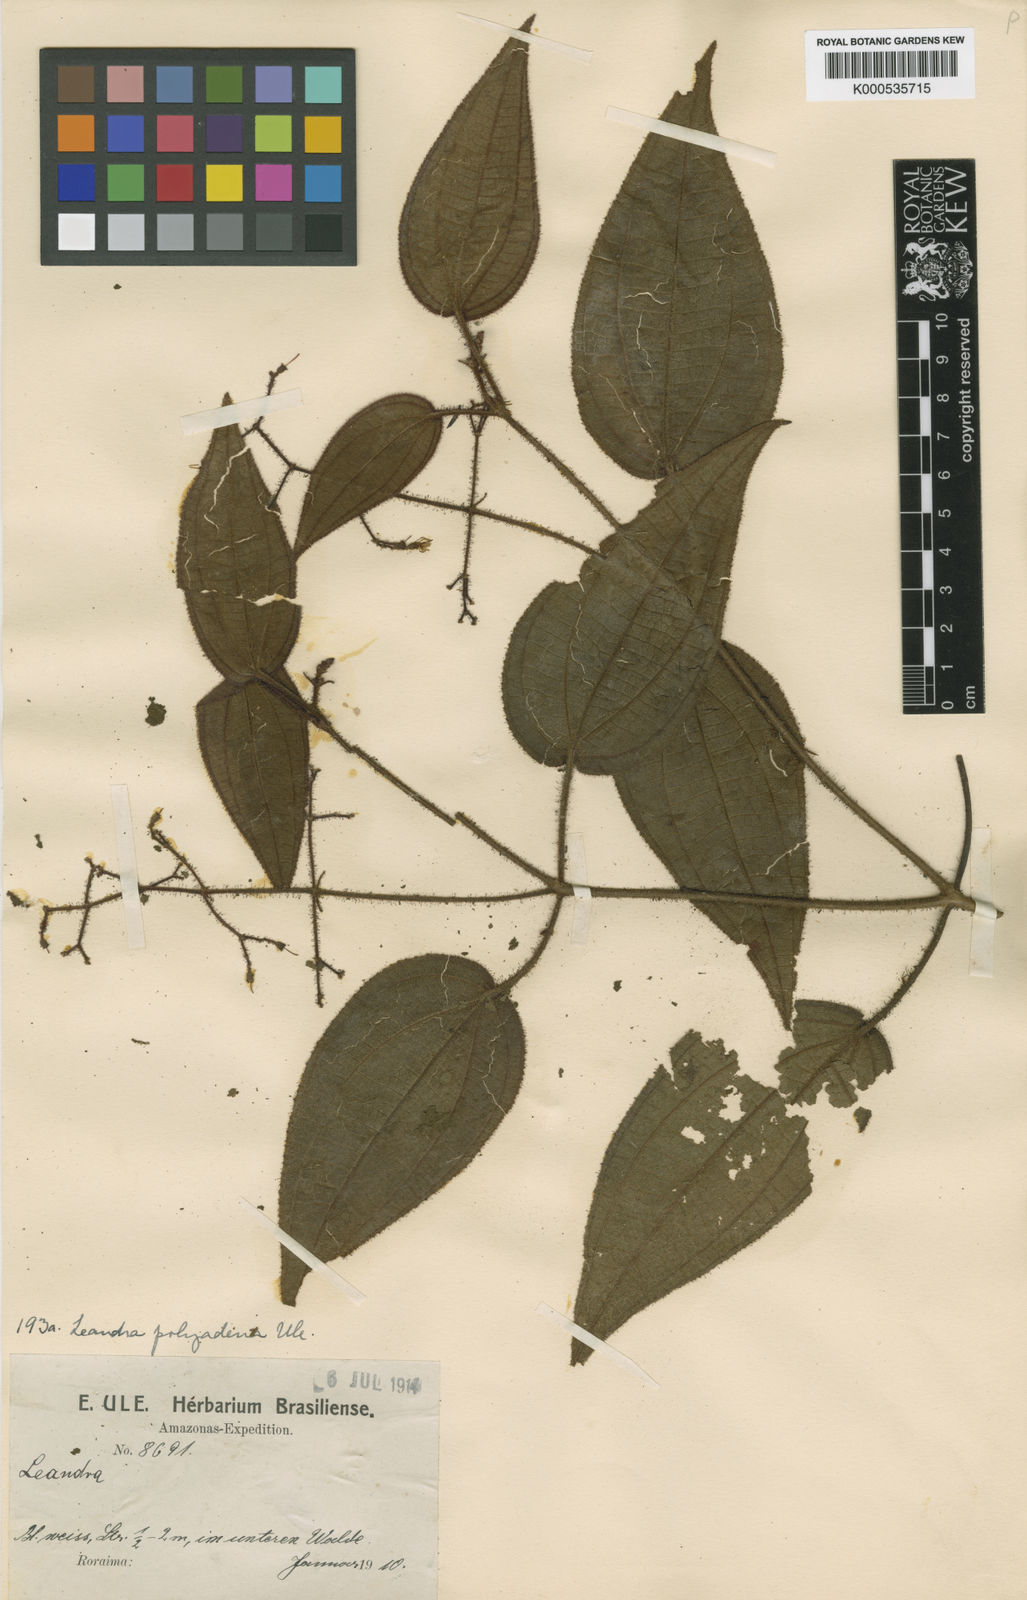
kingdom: Plantae
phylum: Tracheophyta
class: Magnoliopsida
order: Myrtales
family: Melastomataceae
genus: Miconia
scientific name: Miconia polyadena
